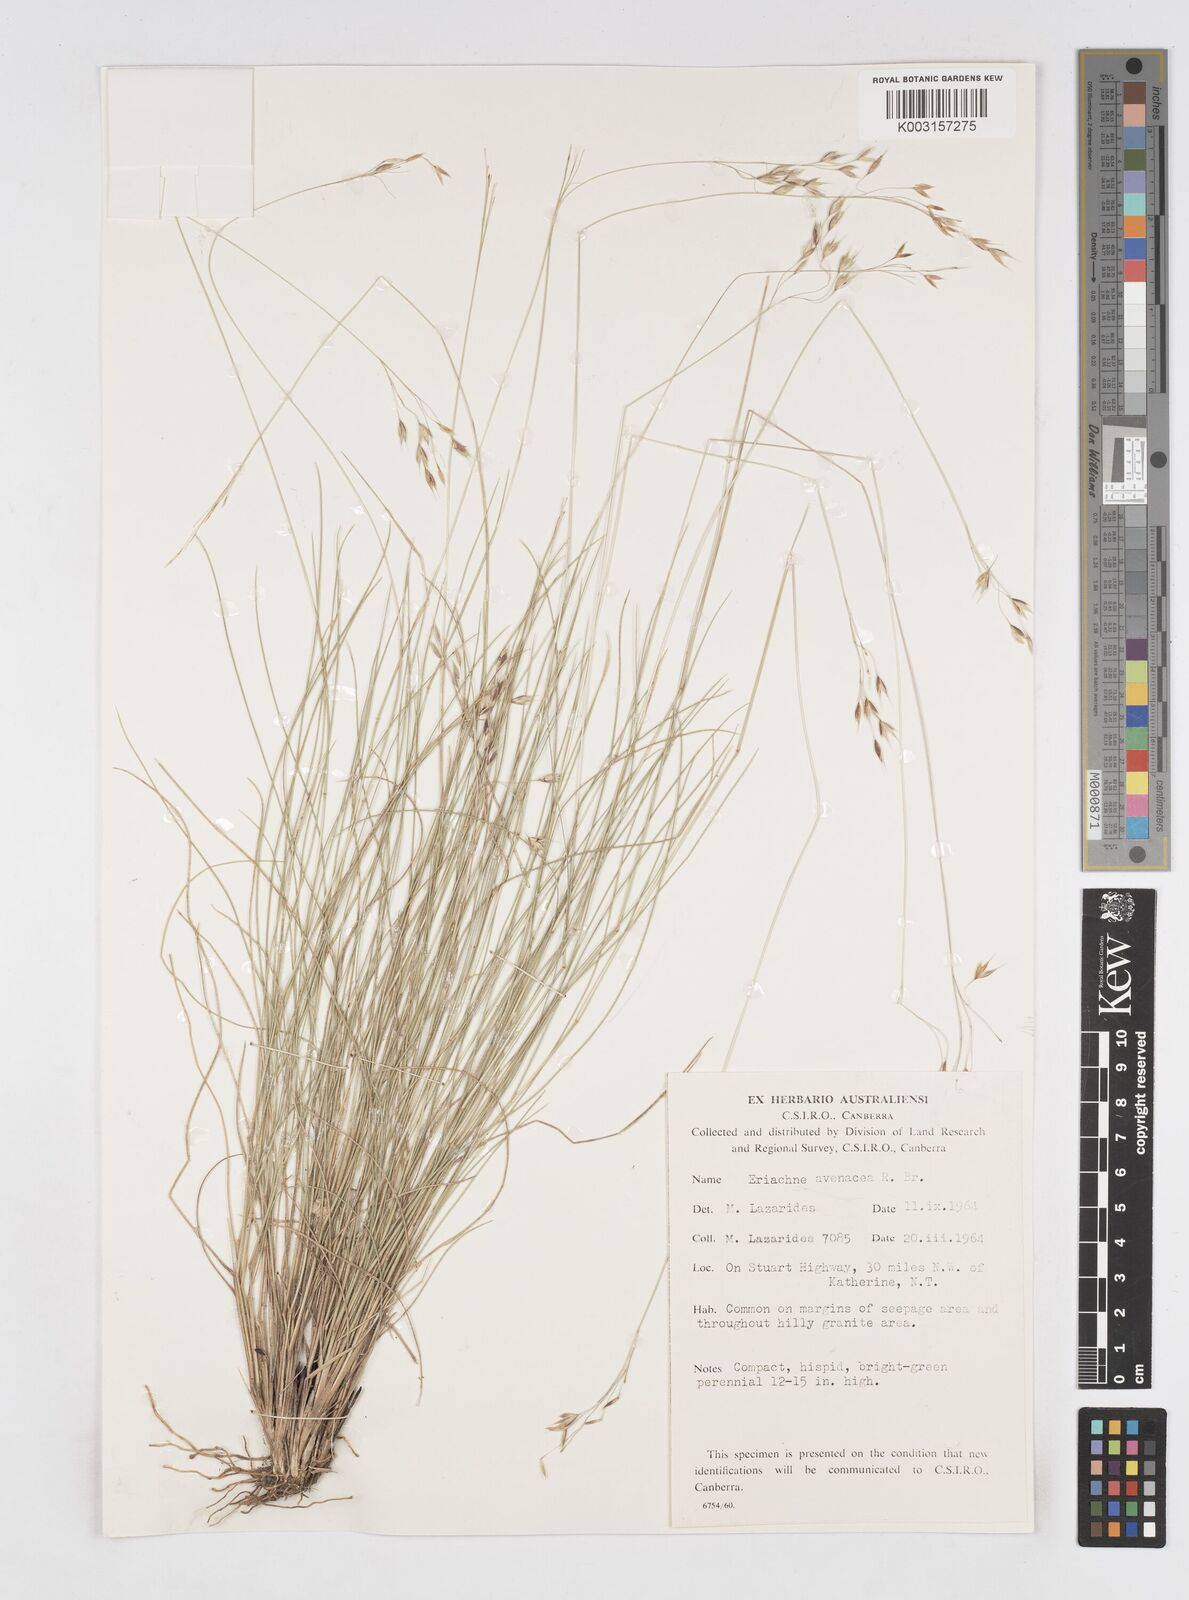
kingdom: Plantae
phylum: Tracheophyta
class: Liliopsida
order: Poales
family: Poaceae
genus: Eriachne
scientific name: Eriachne avenacea
